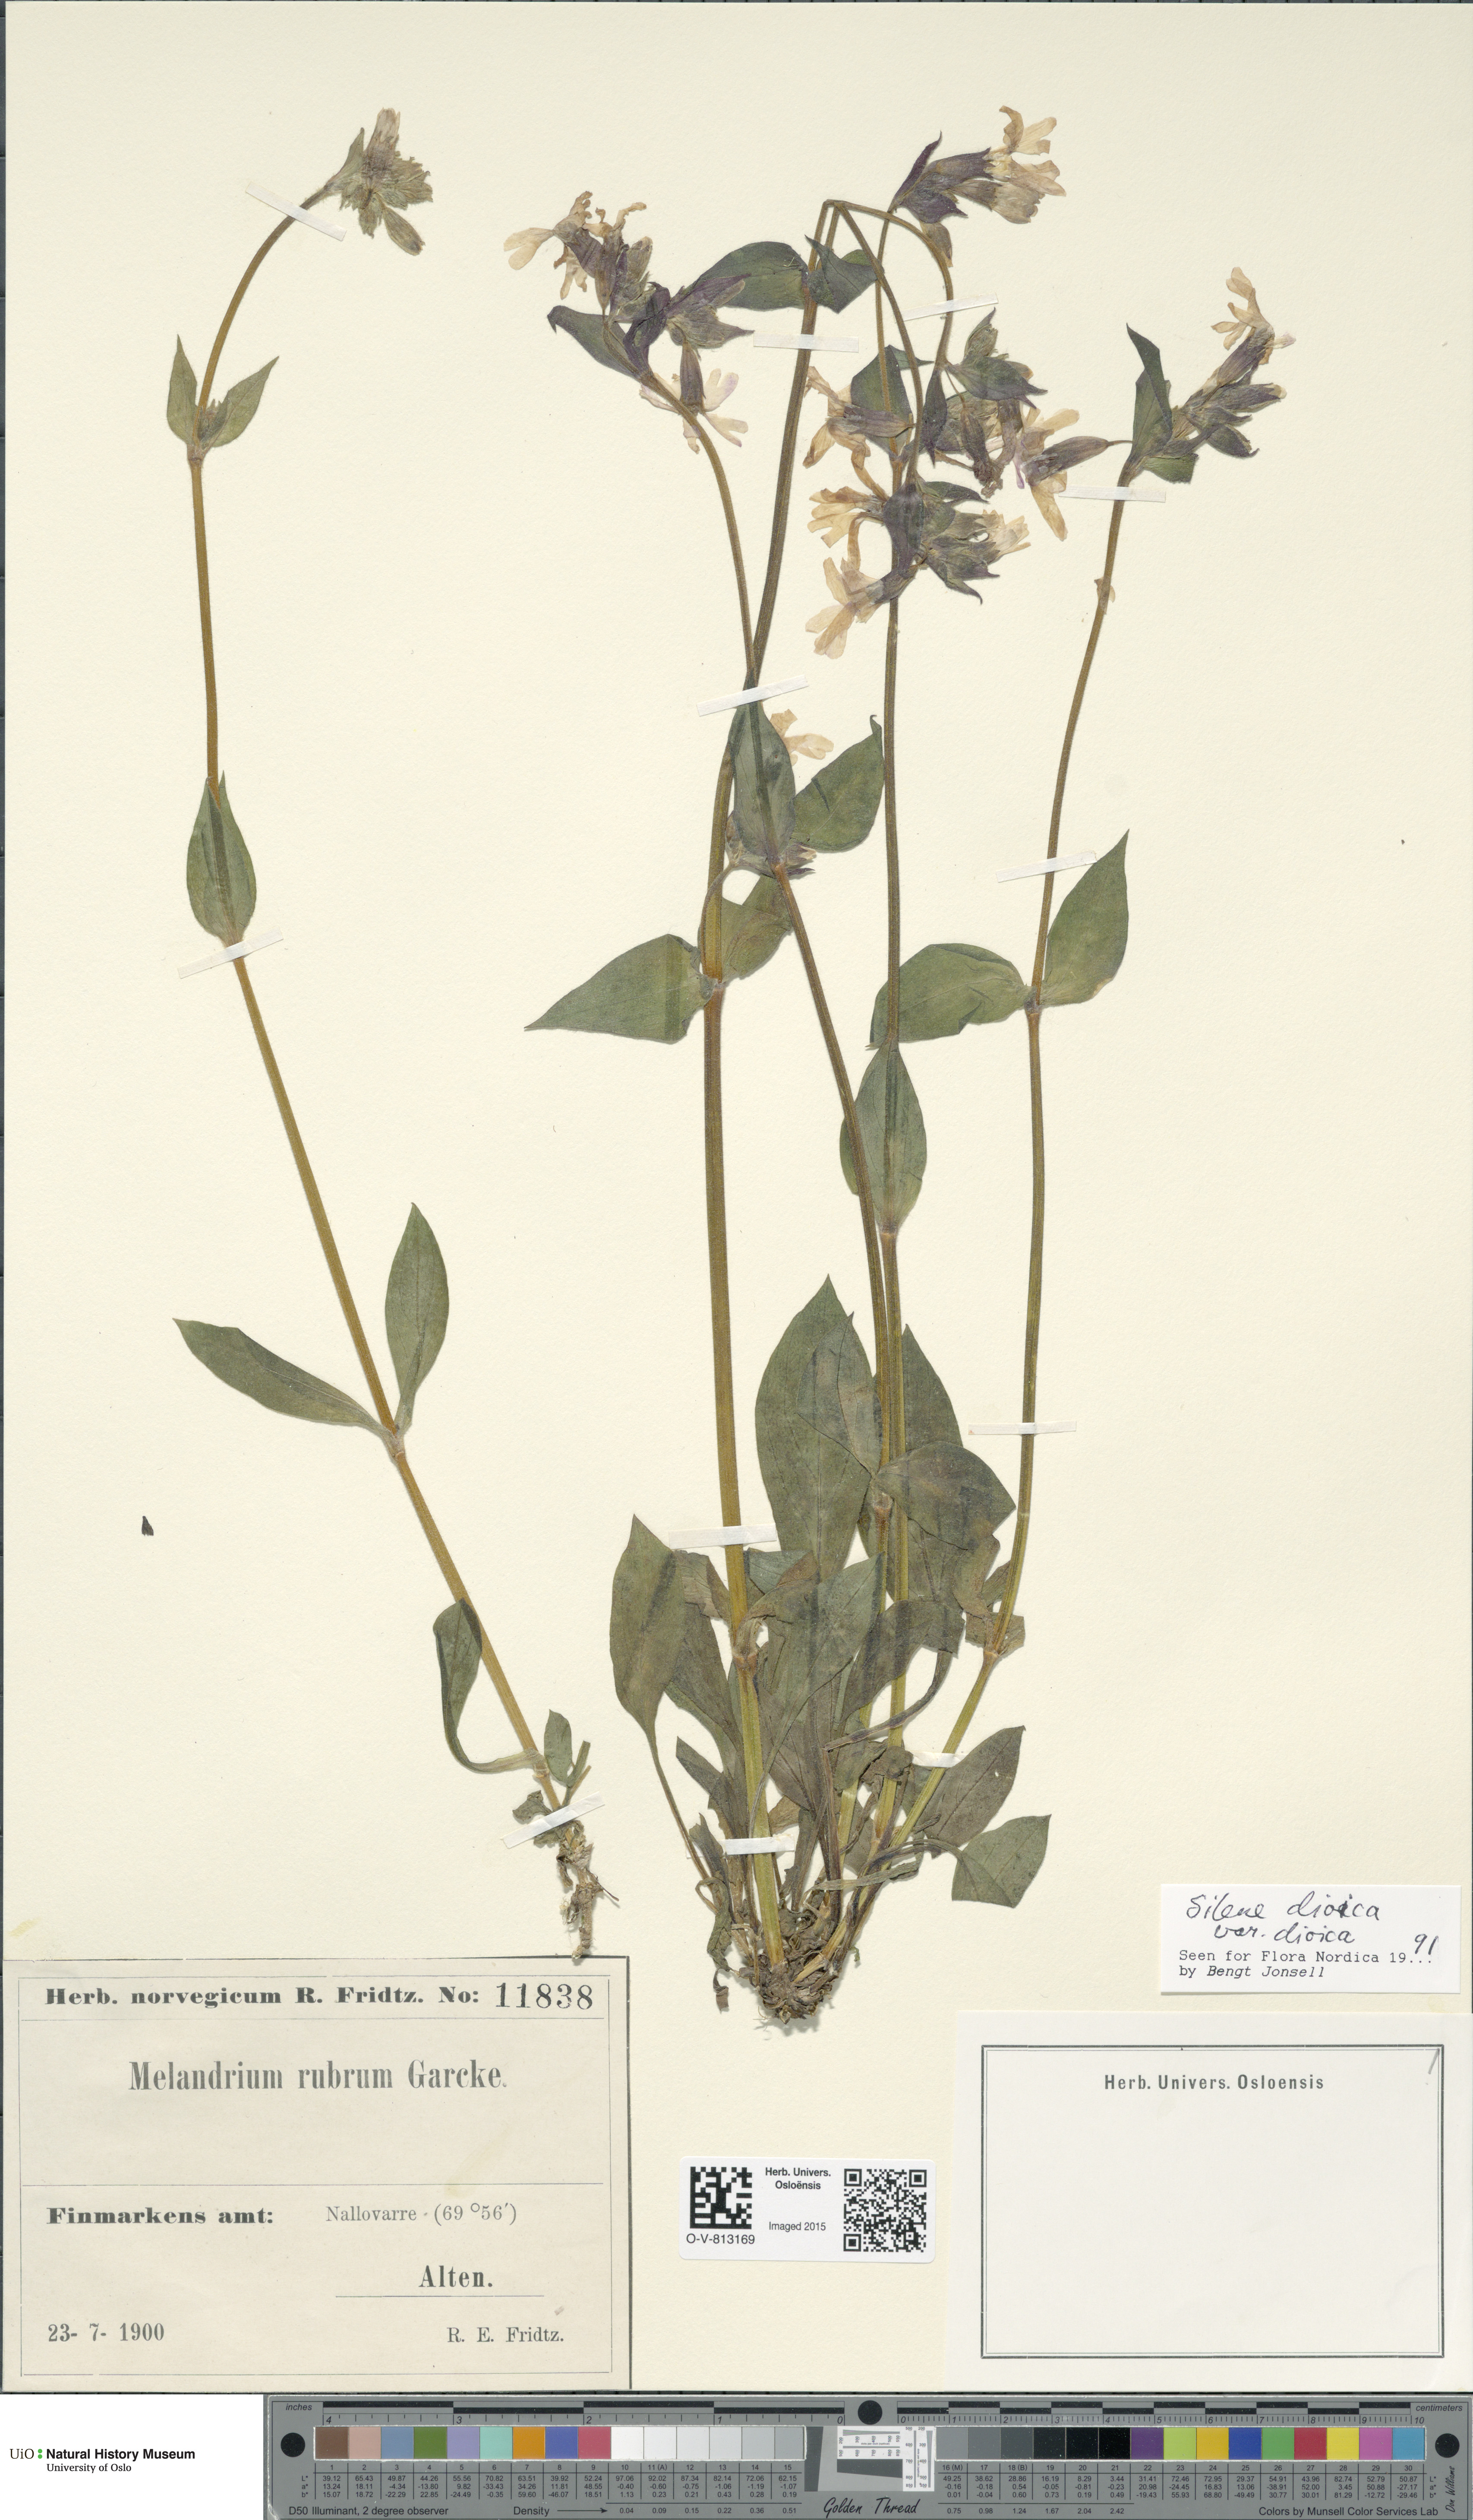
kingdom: Plantae
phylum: Tracheophyta
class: Magnoliopsida
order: Caryophyllales
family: Caryophyllaceae
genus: Silene
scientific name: Silene dioica
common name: Red campion
